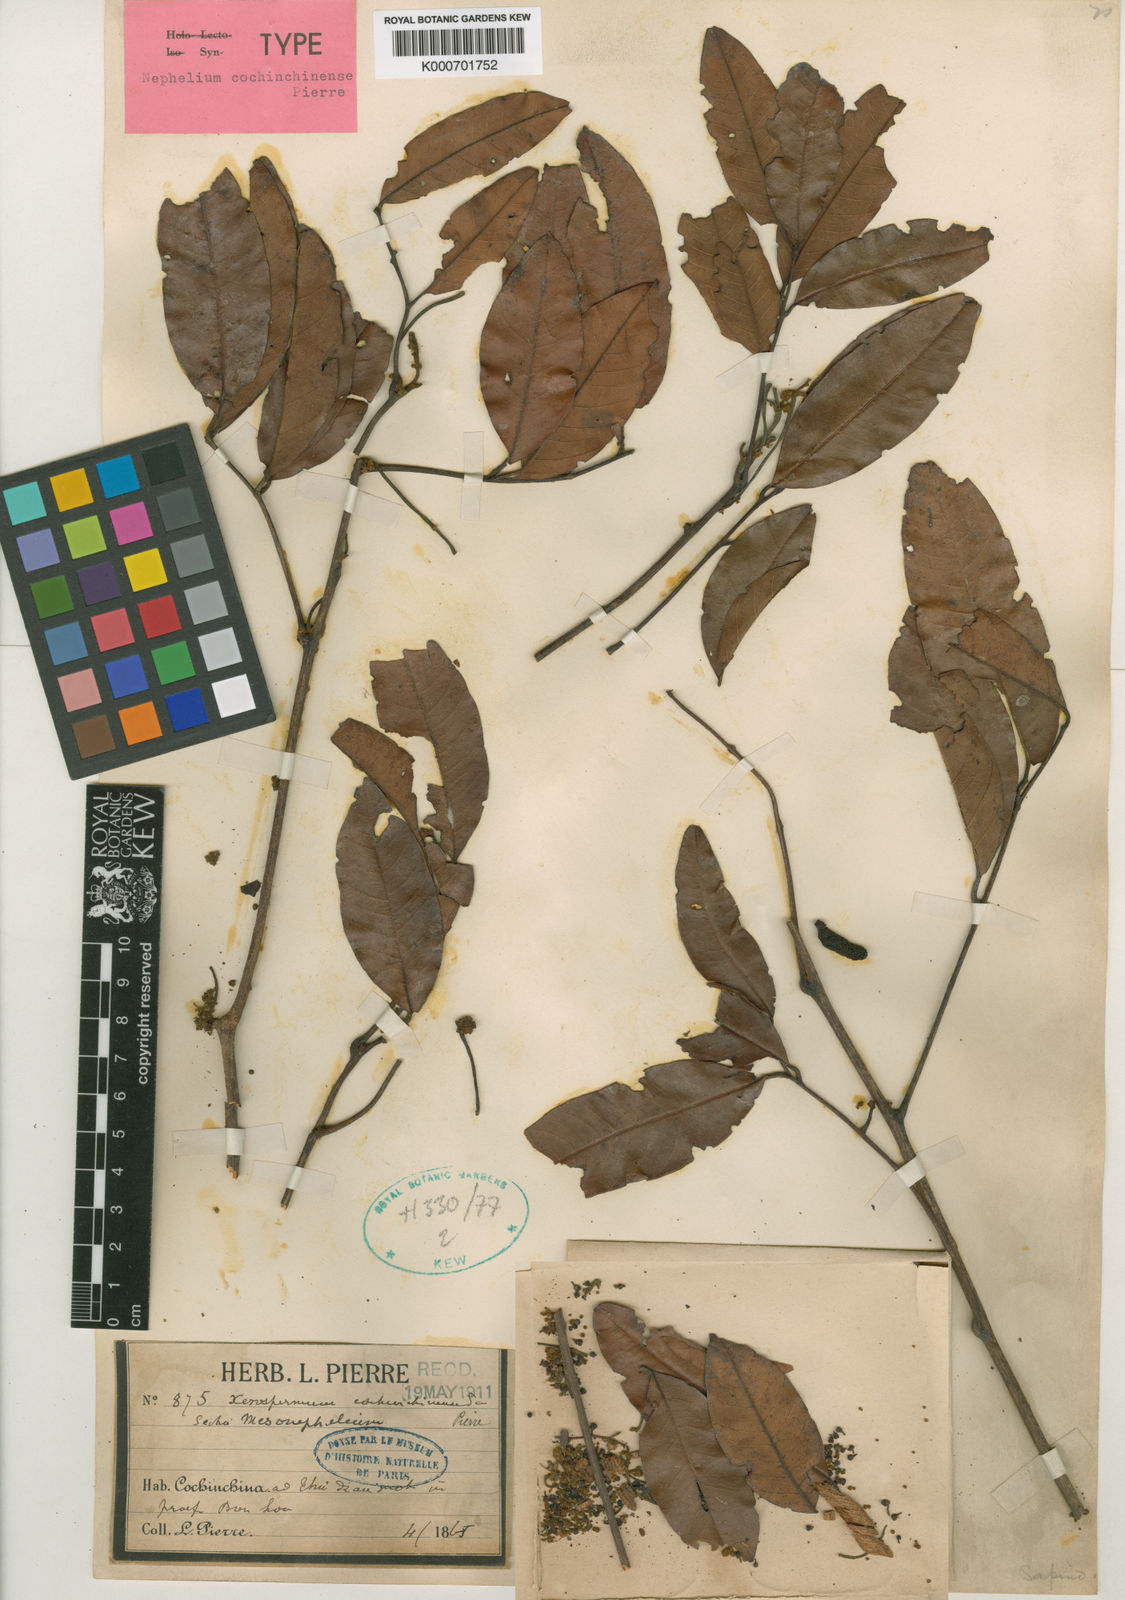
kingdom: Plantae
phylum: Tracheophyta
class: Magnoliopsida
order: Sapindales
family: Sapindaceae
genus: Nephelium
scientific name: Nephelium hypoleucum
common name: Korlan
